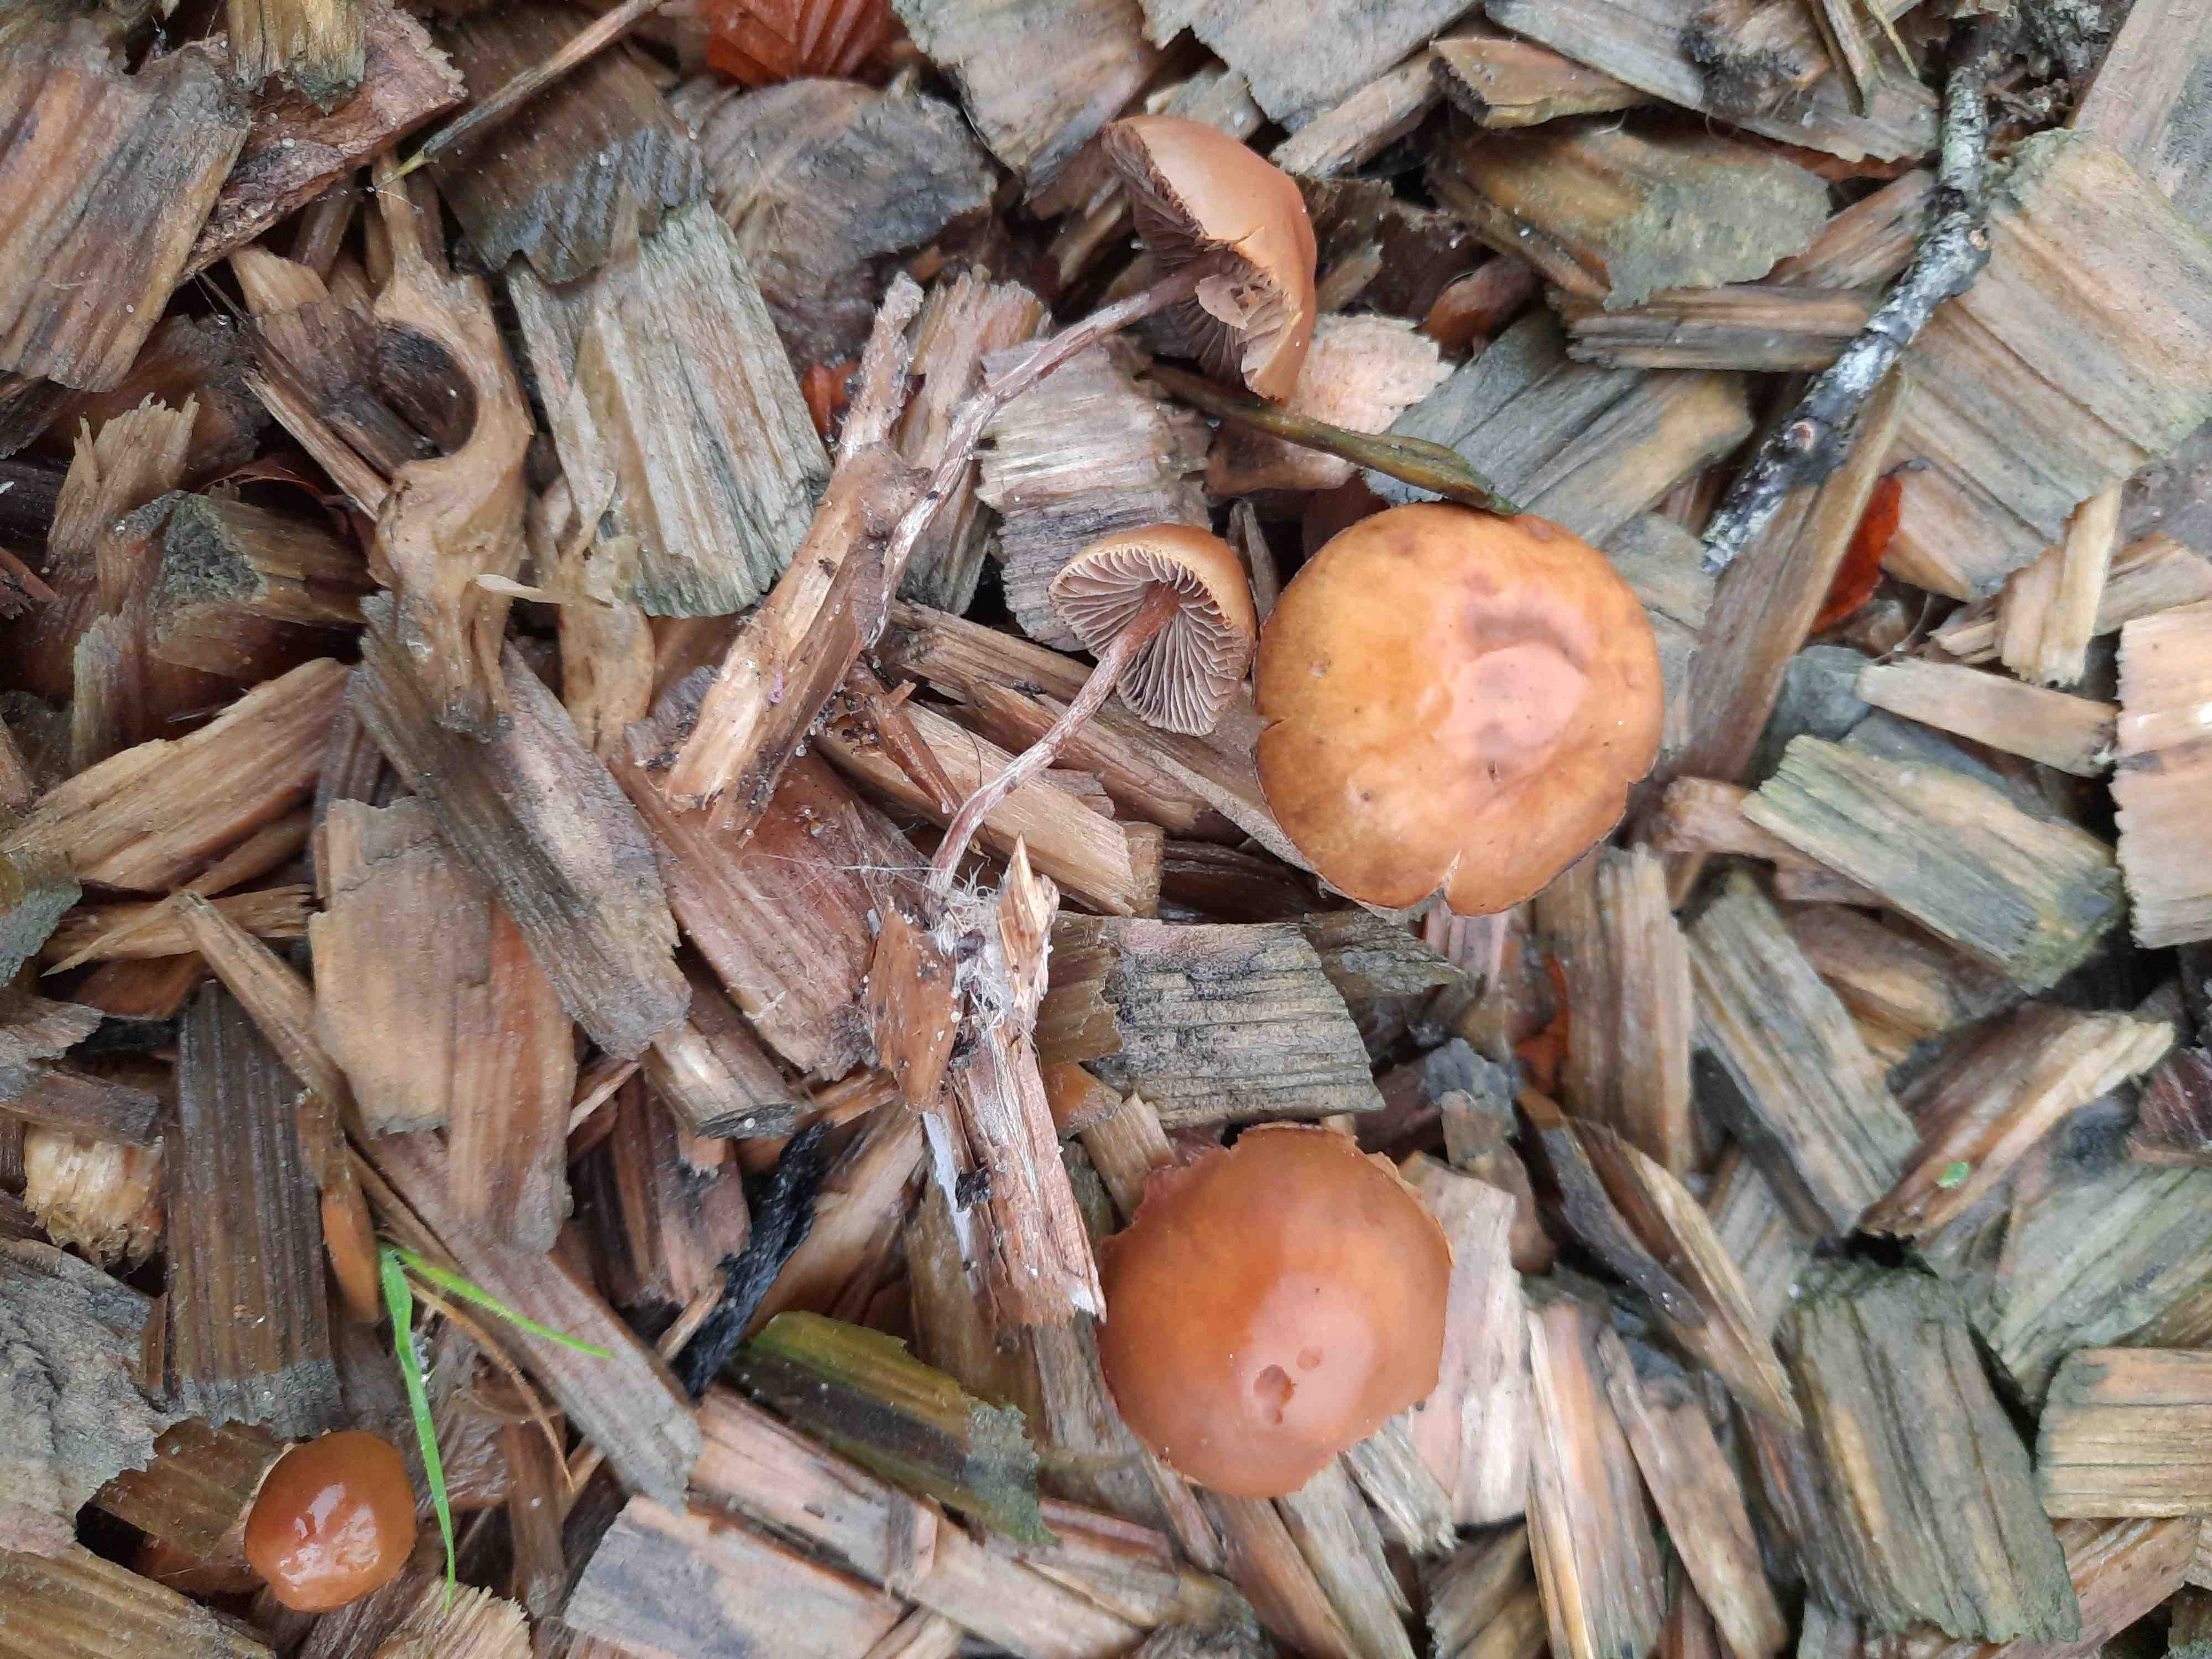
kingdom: Fungi
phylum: Basidiomycota
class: Agaricomycetes
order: Agaricales
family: Strophariaceae
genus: Hypholoma
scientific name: Hypholoma marginatum
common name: enlig svovlhat
